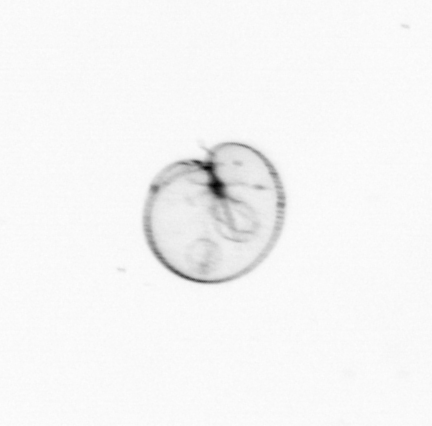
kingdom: Chromista
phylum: Myzozoa
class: Dinophyceae
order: Noctilucales
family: Noctilucaceae
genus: Noctiluca
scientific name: Noctiluca scintillans
